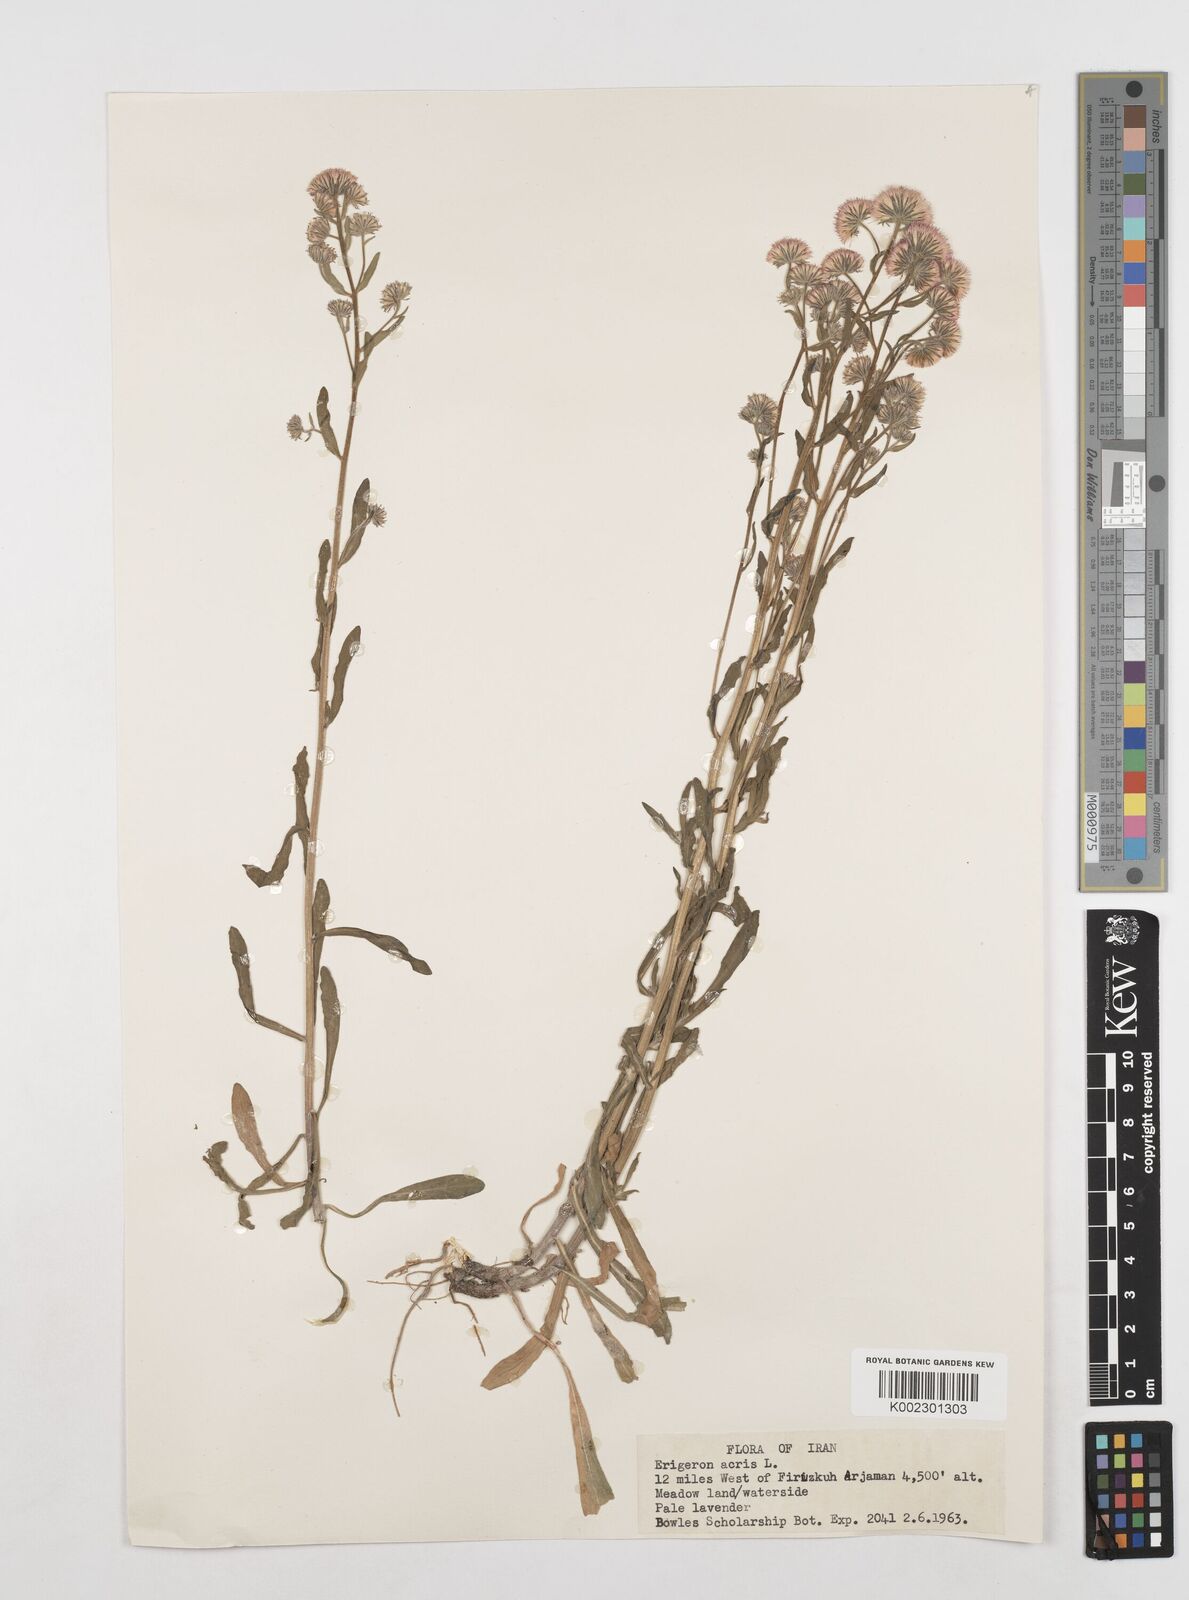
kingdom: Plantae
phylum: Tracheophyta
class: Magnoliopsida
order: Asterales
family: Asteraceae
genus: Erigeron
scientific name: Erigeron acris
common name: Blue fleabane
